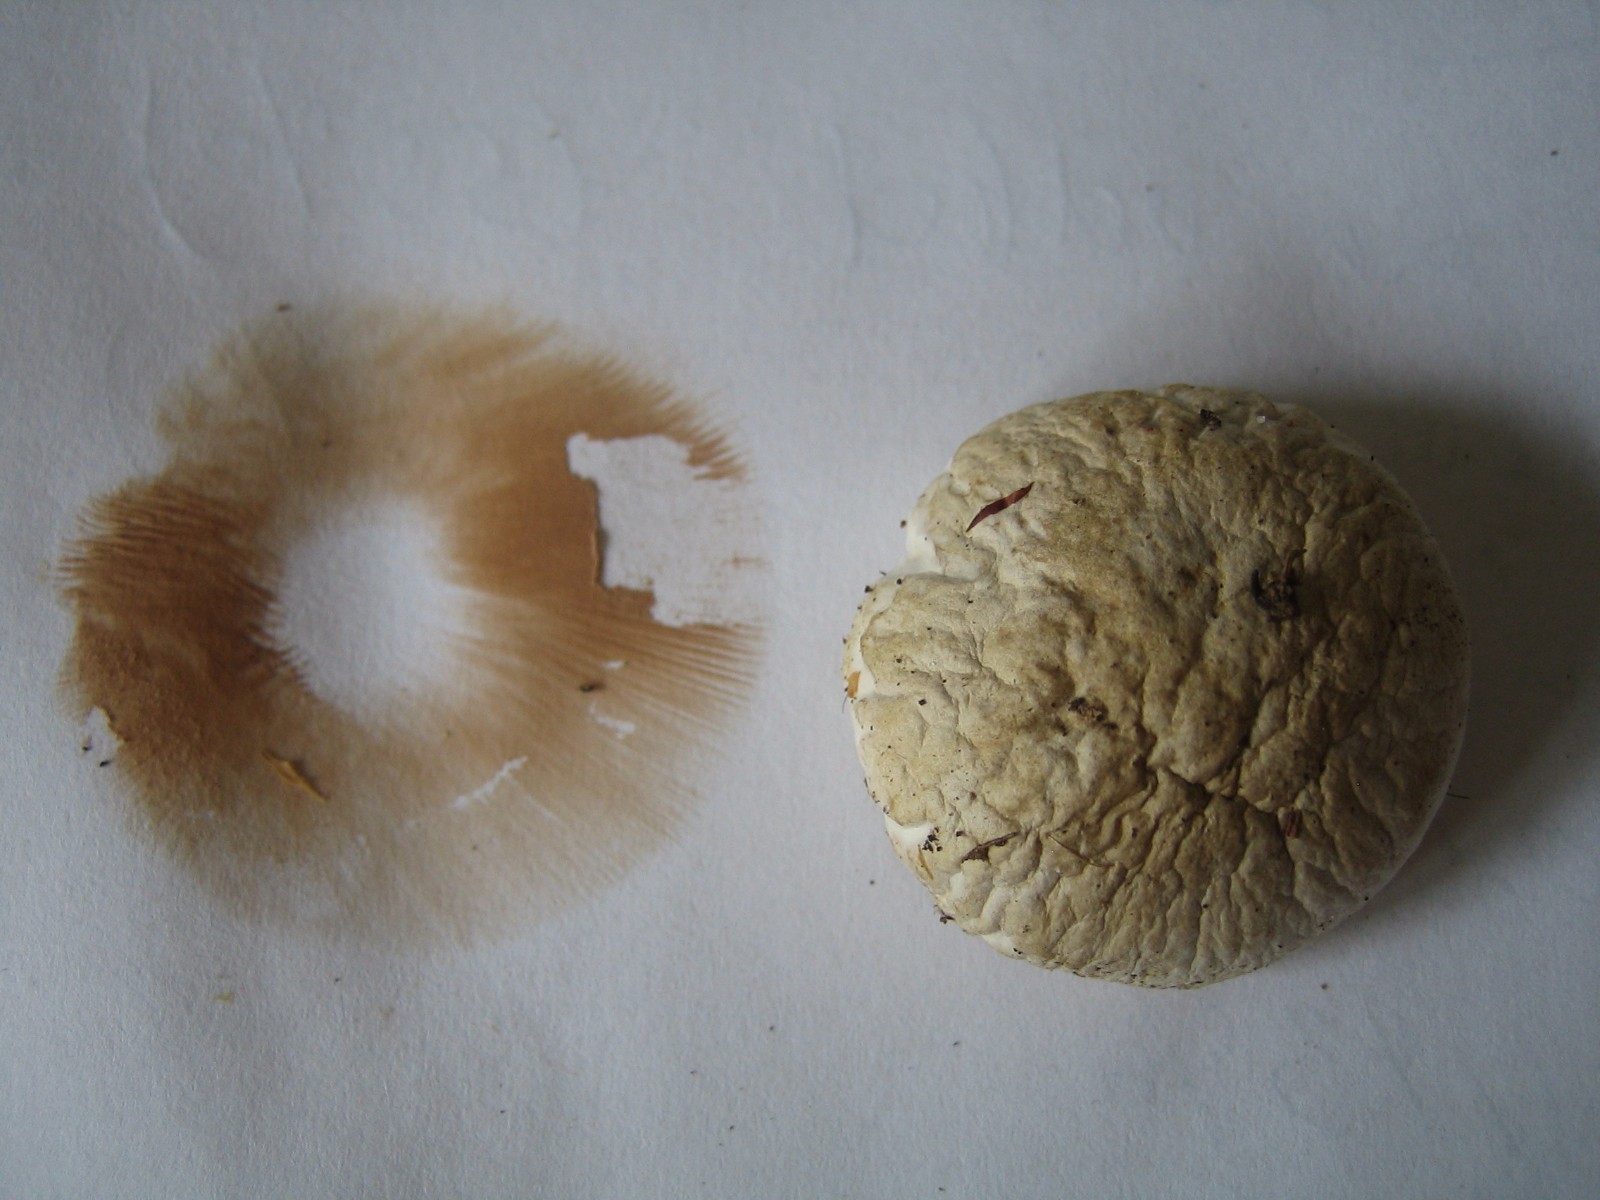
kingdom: Fungi
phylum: Basidiomycota
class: Agaricomycetes
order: Agaricales
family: Entolomataceae
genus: Clitopilus
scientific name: Clitopilus prunulus
